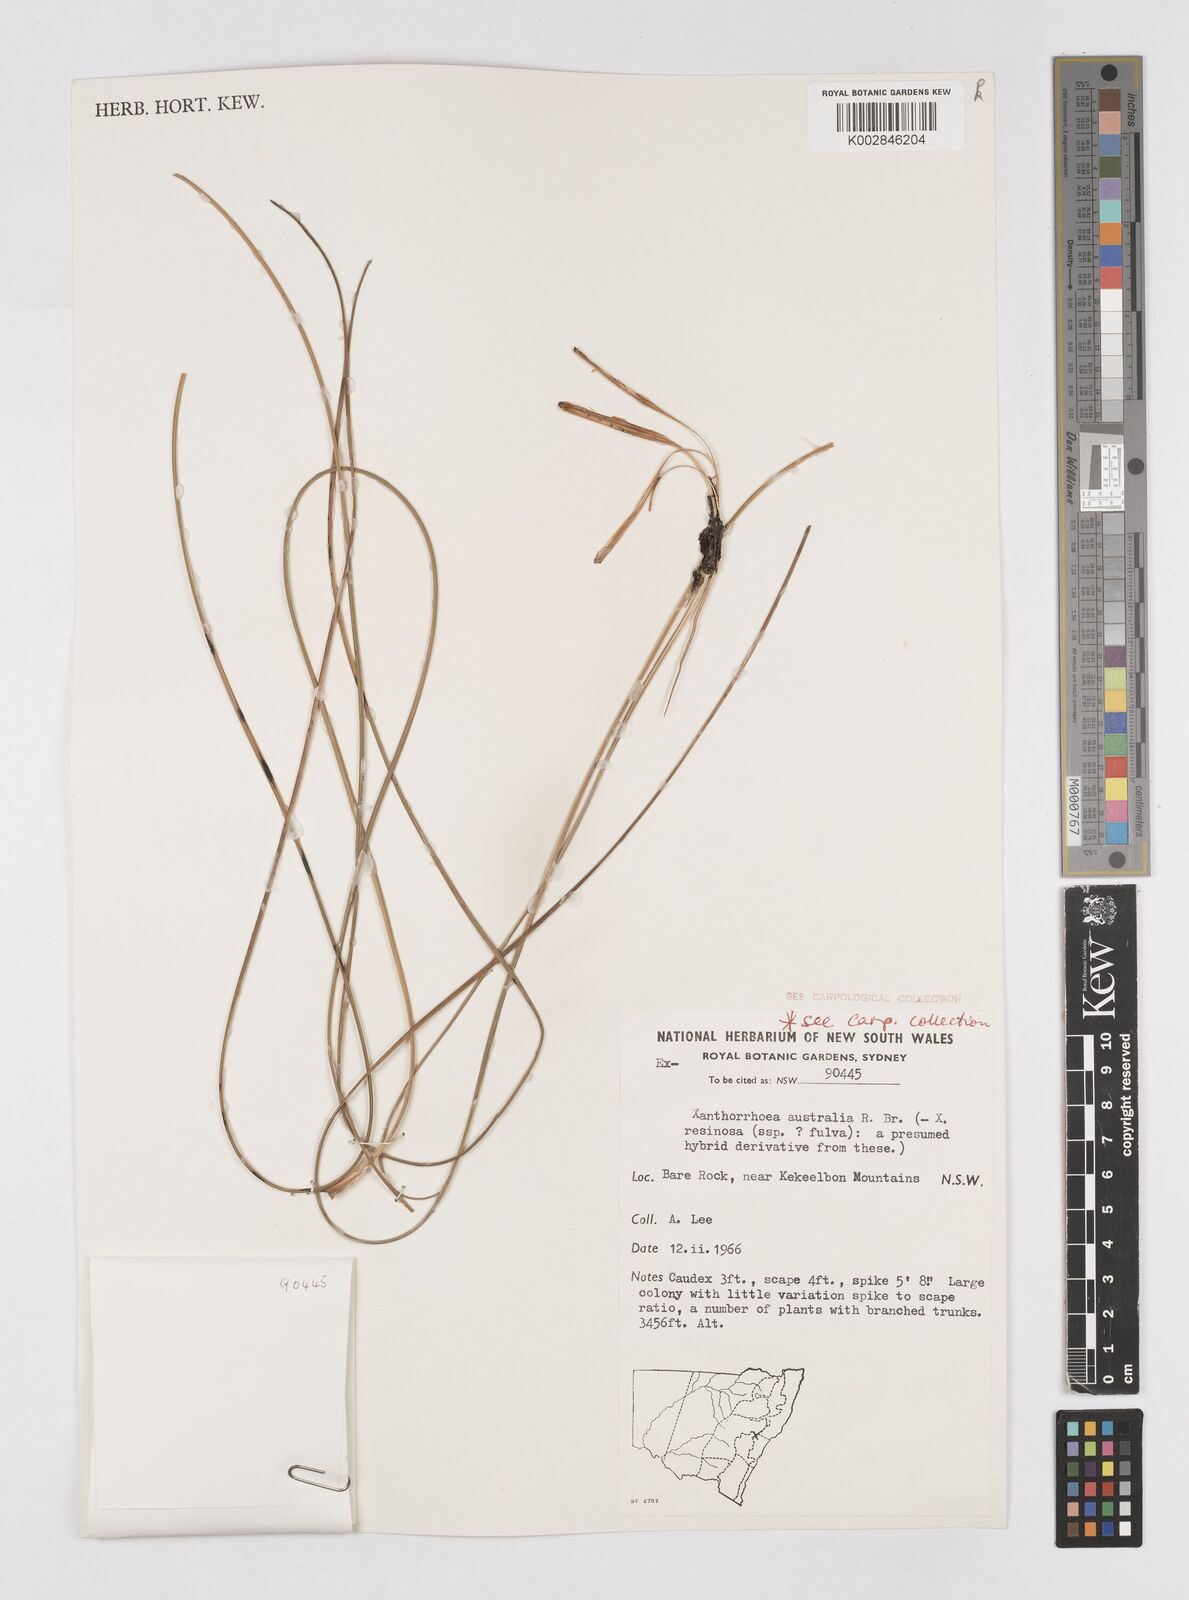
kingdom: Plantae
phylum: Tracheophyta
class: Liliopsida
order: Asparagales
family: Asphodelaceae
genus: Xanthorrhoea
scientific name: Xanthorrhoea australis
